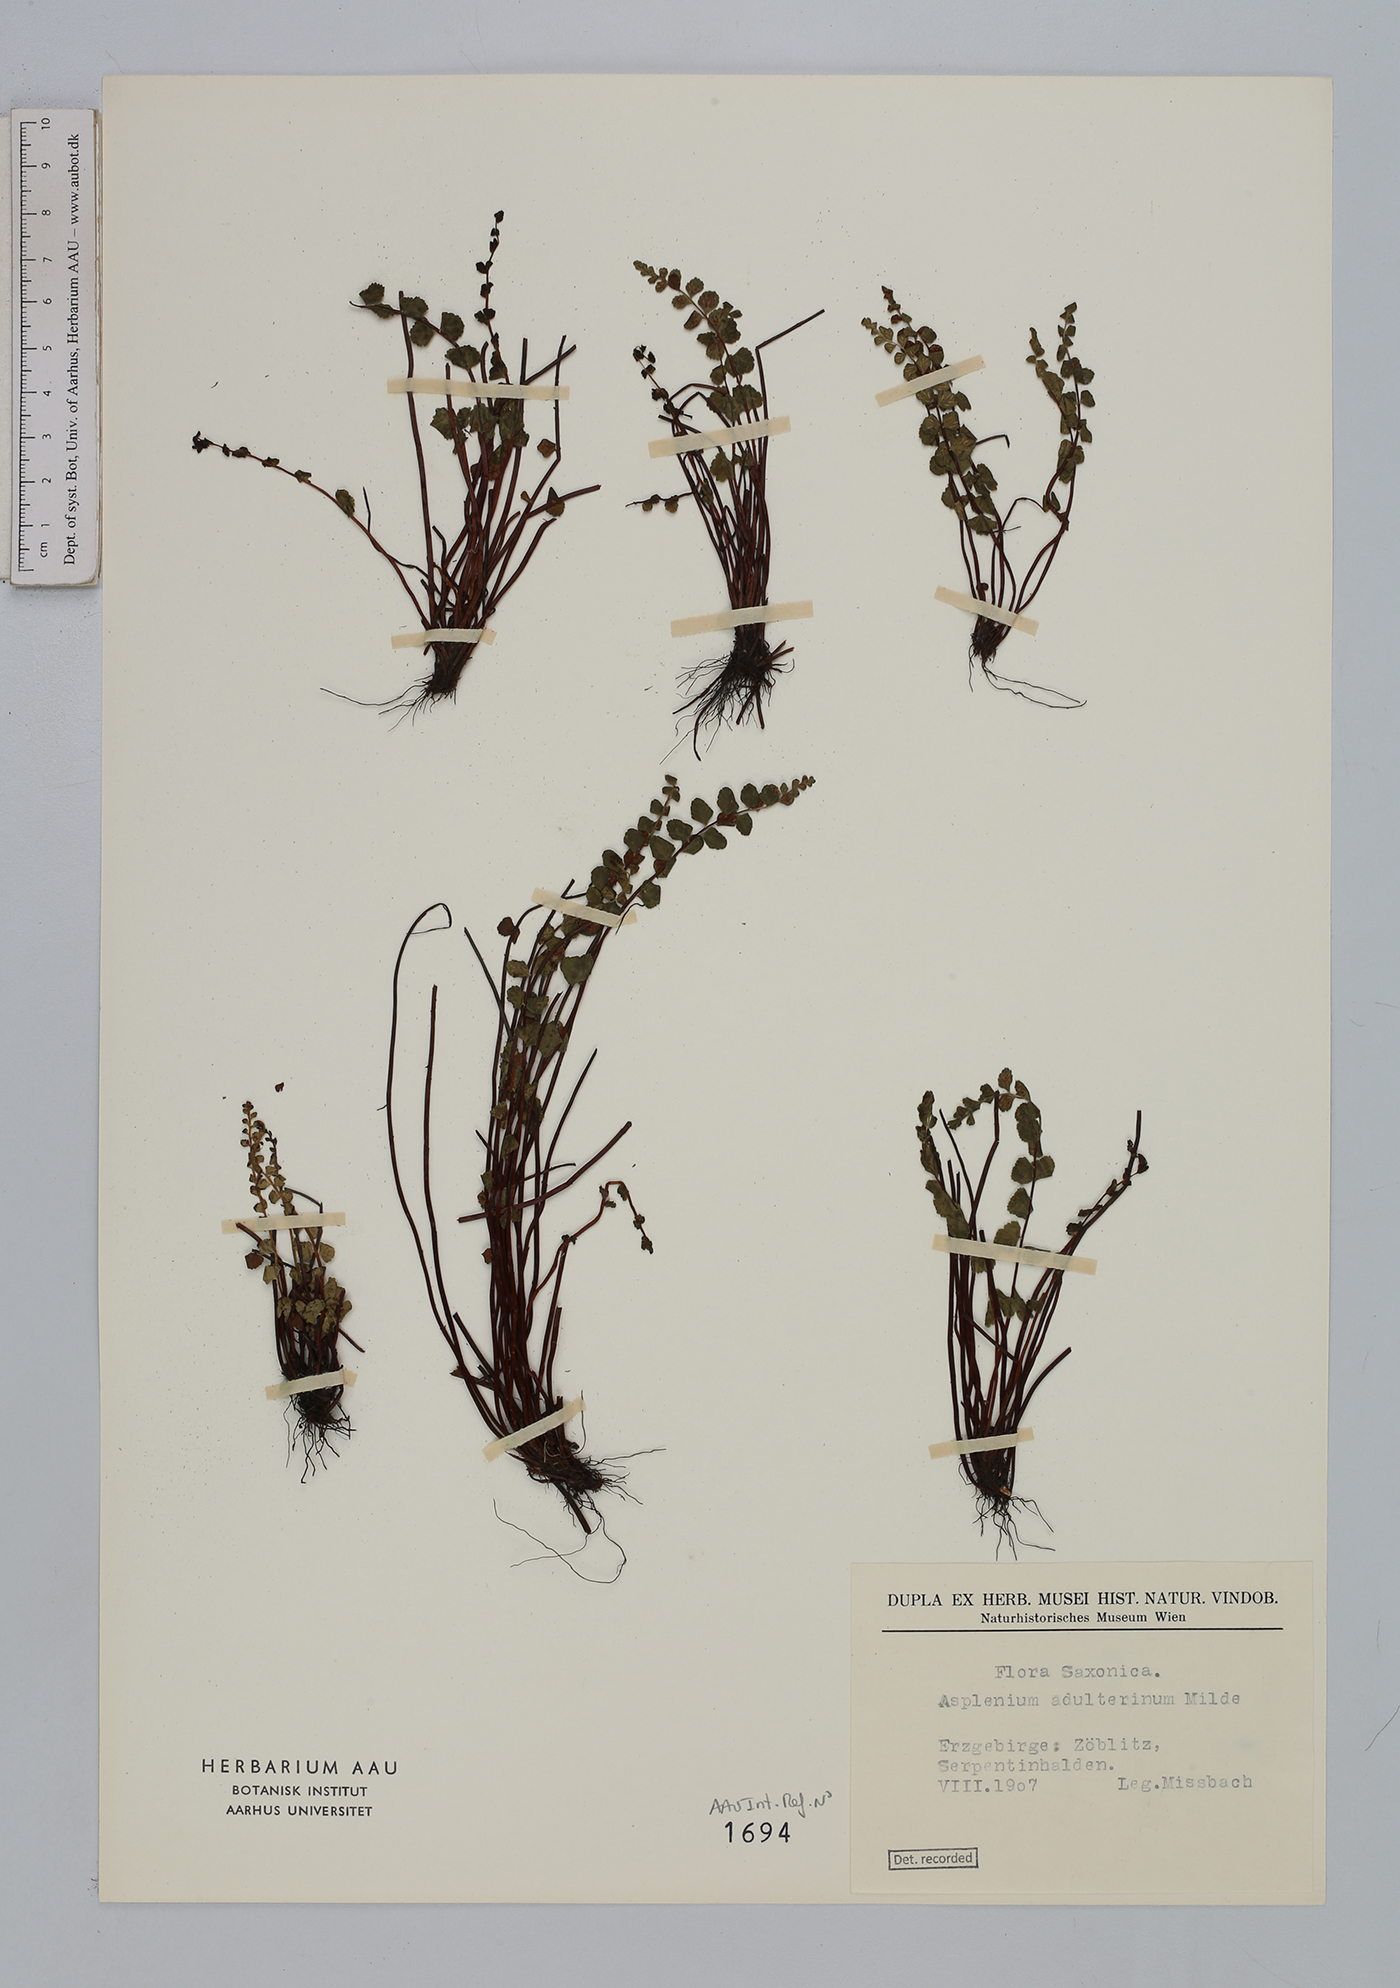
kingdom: Plantae
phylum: Tracheophyta
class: Polypodiopsida
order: Polypodiales
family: Aspleniaceae
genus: Asplenium
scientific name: Asplenium adulterinum
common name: Adulterated spleenwort
